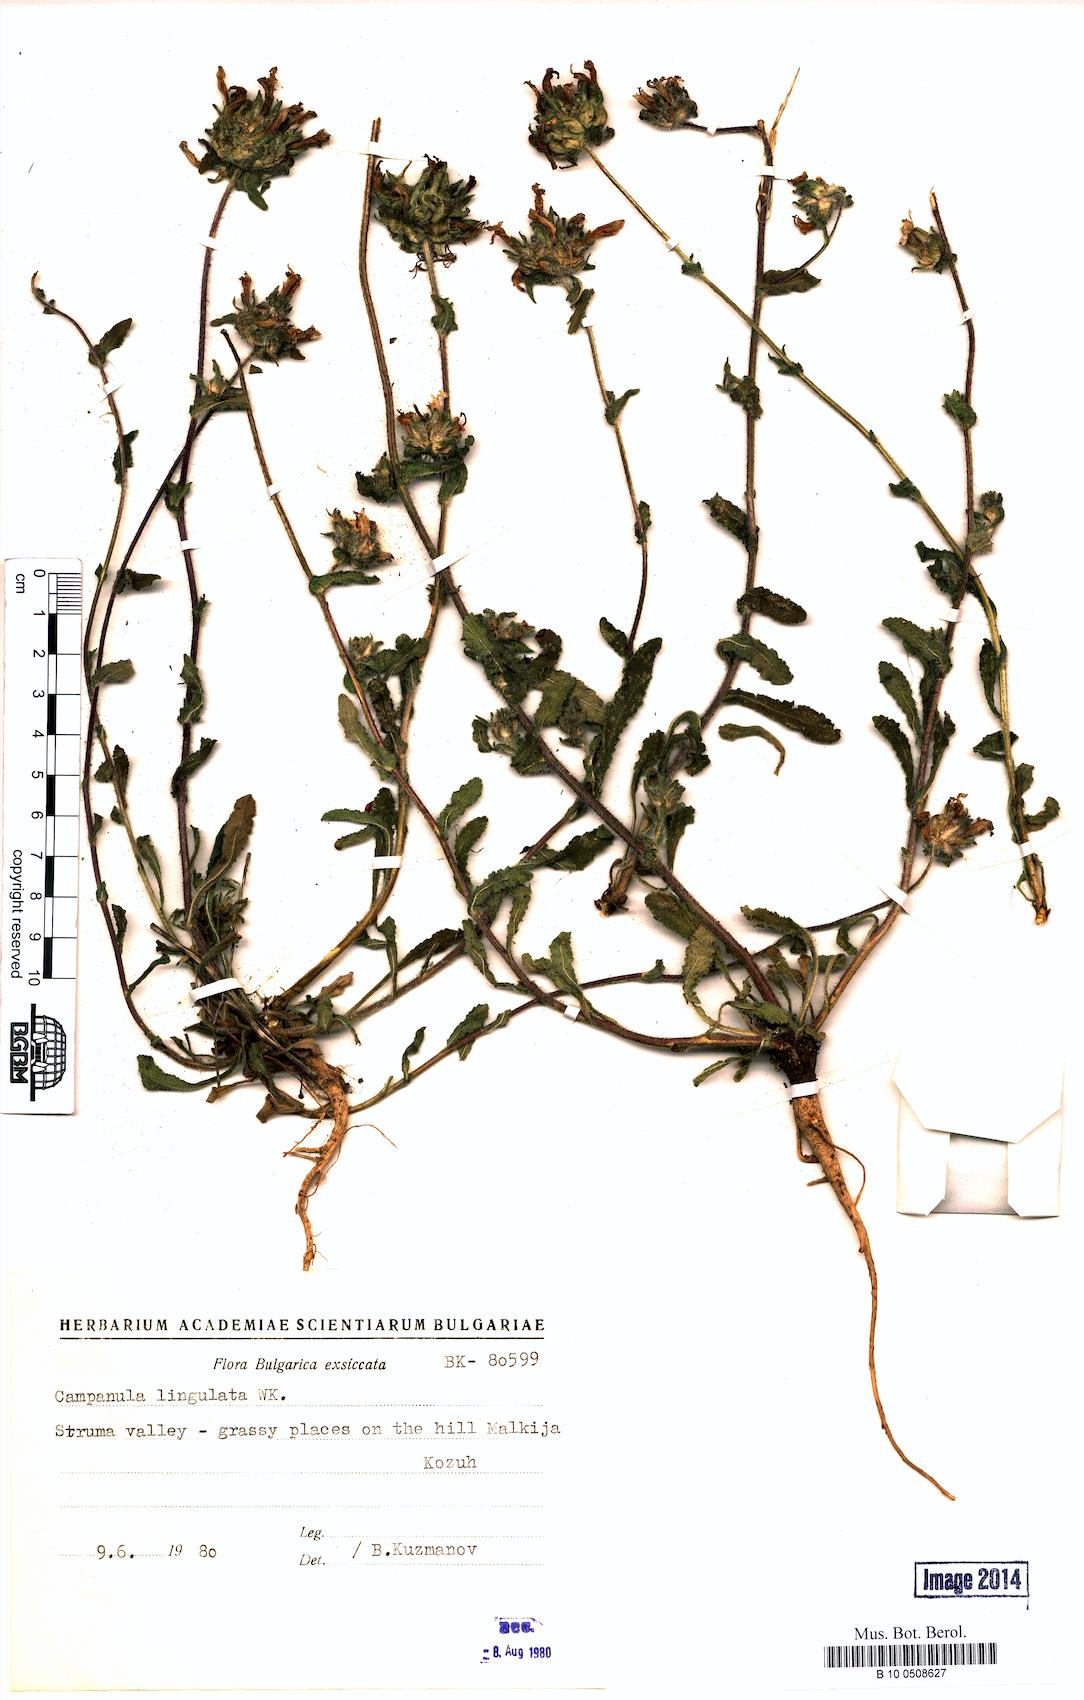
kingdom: Plantae
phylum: Tracheophyta
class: Magnoliopsida
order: Asterales
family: Campanulaceae
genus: Campanula
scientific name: Campanula lingulata
